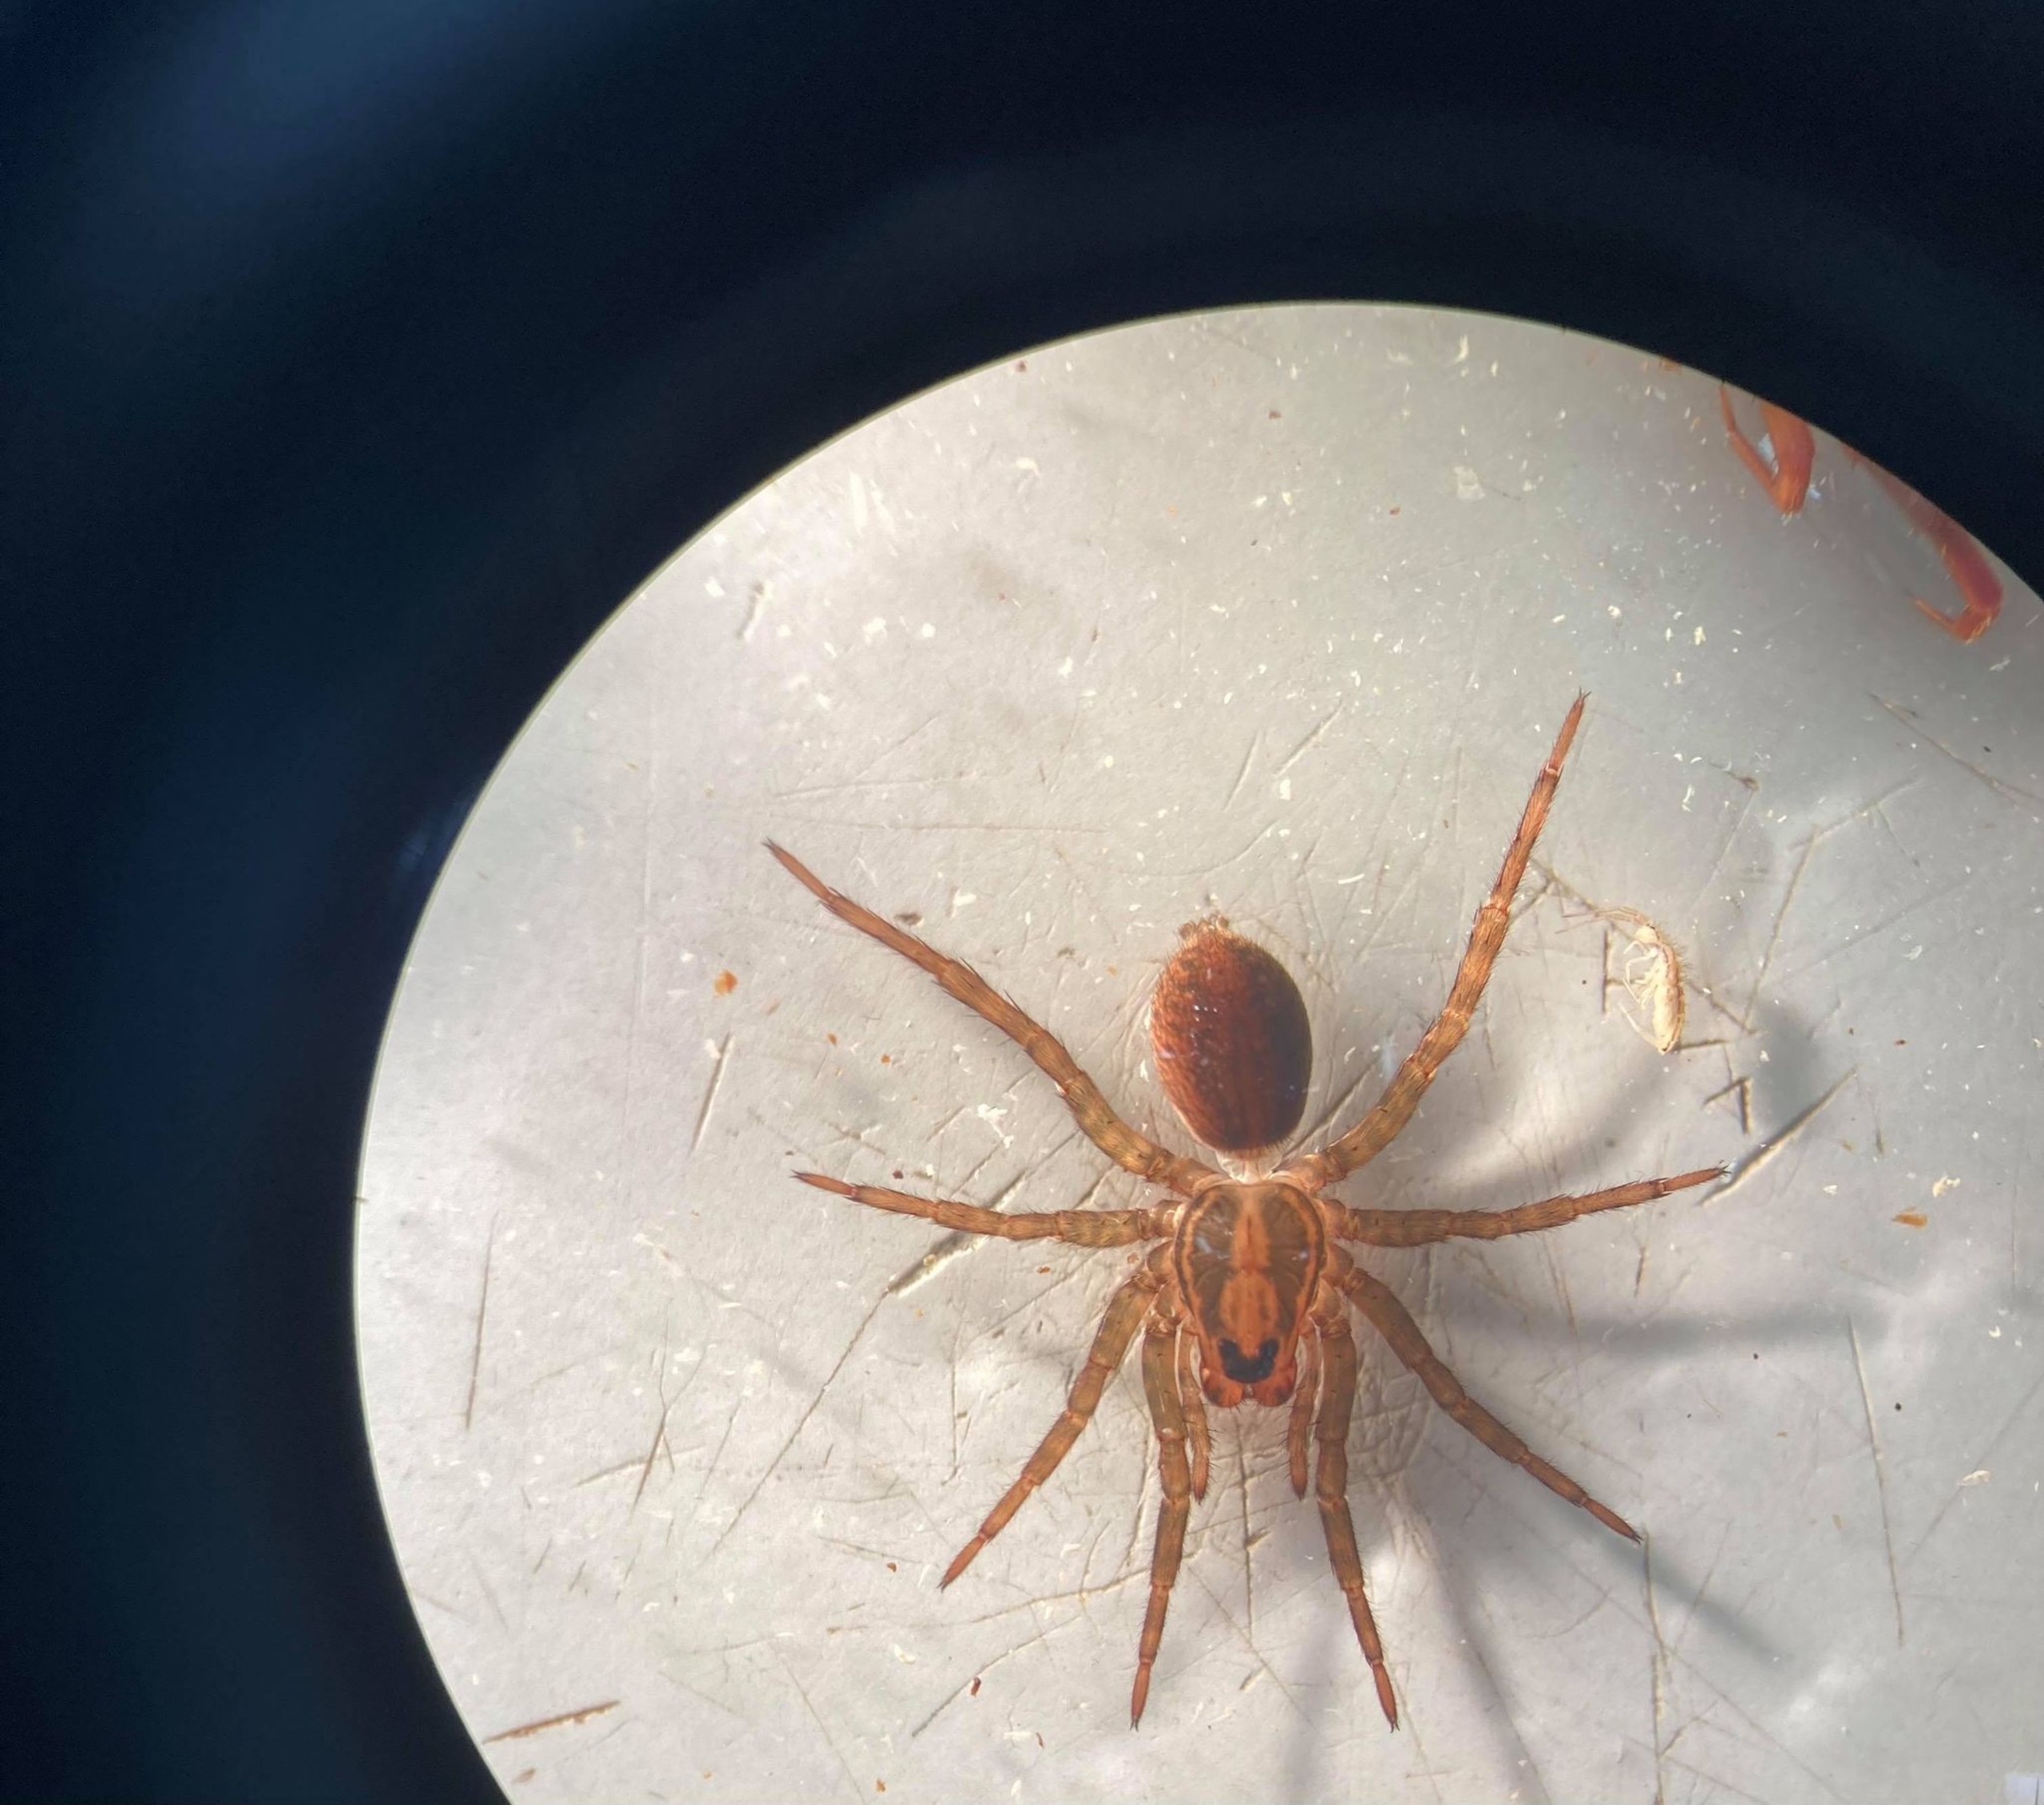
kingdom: Animalia
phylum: Arthropoda
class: Arachnida
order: Araneae
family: Lycosidae
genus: Trochosa
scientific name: Trochosa
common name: Bjørneedderkopslægten
